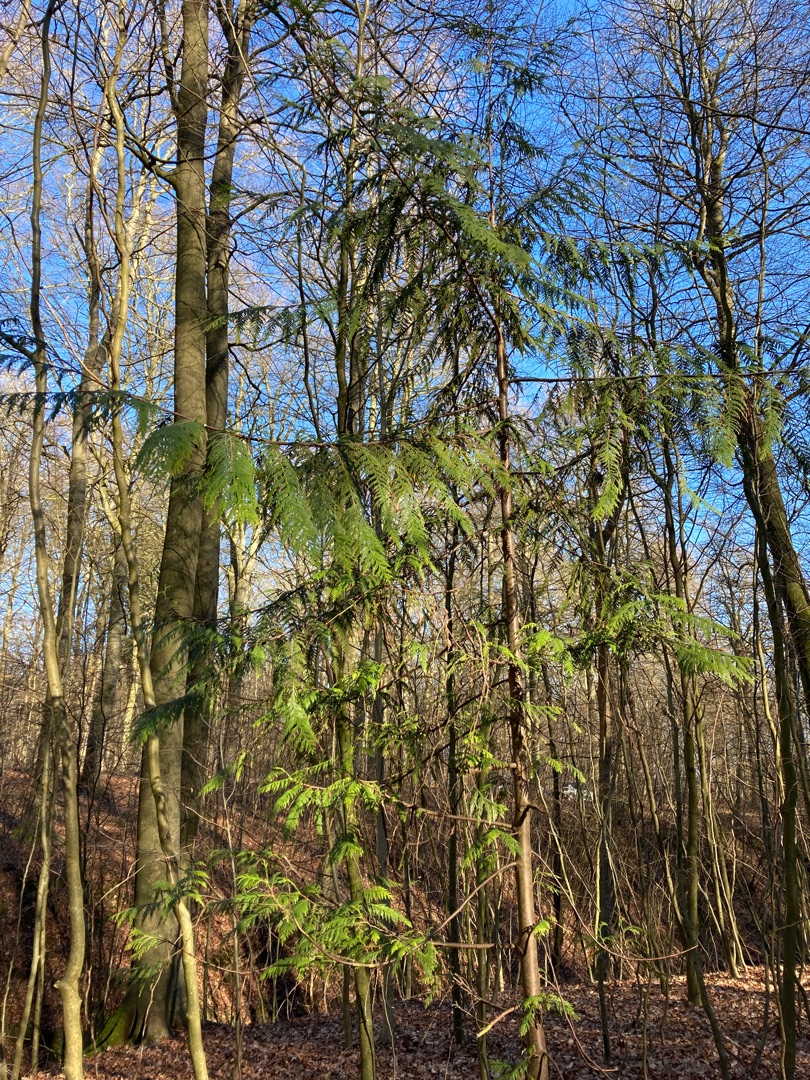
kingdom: Plantae
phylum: Tracheophyta
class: Pinopsida
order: Pinales
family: Cupressaceae
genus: Thuja
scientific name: Thuja plicata
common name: Kæmpe-thuja
